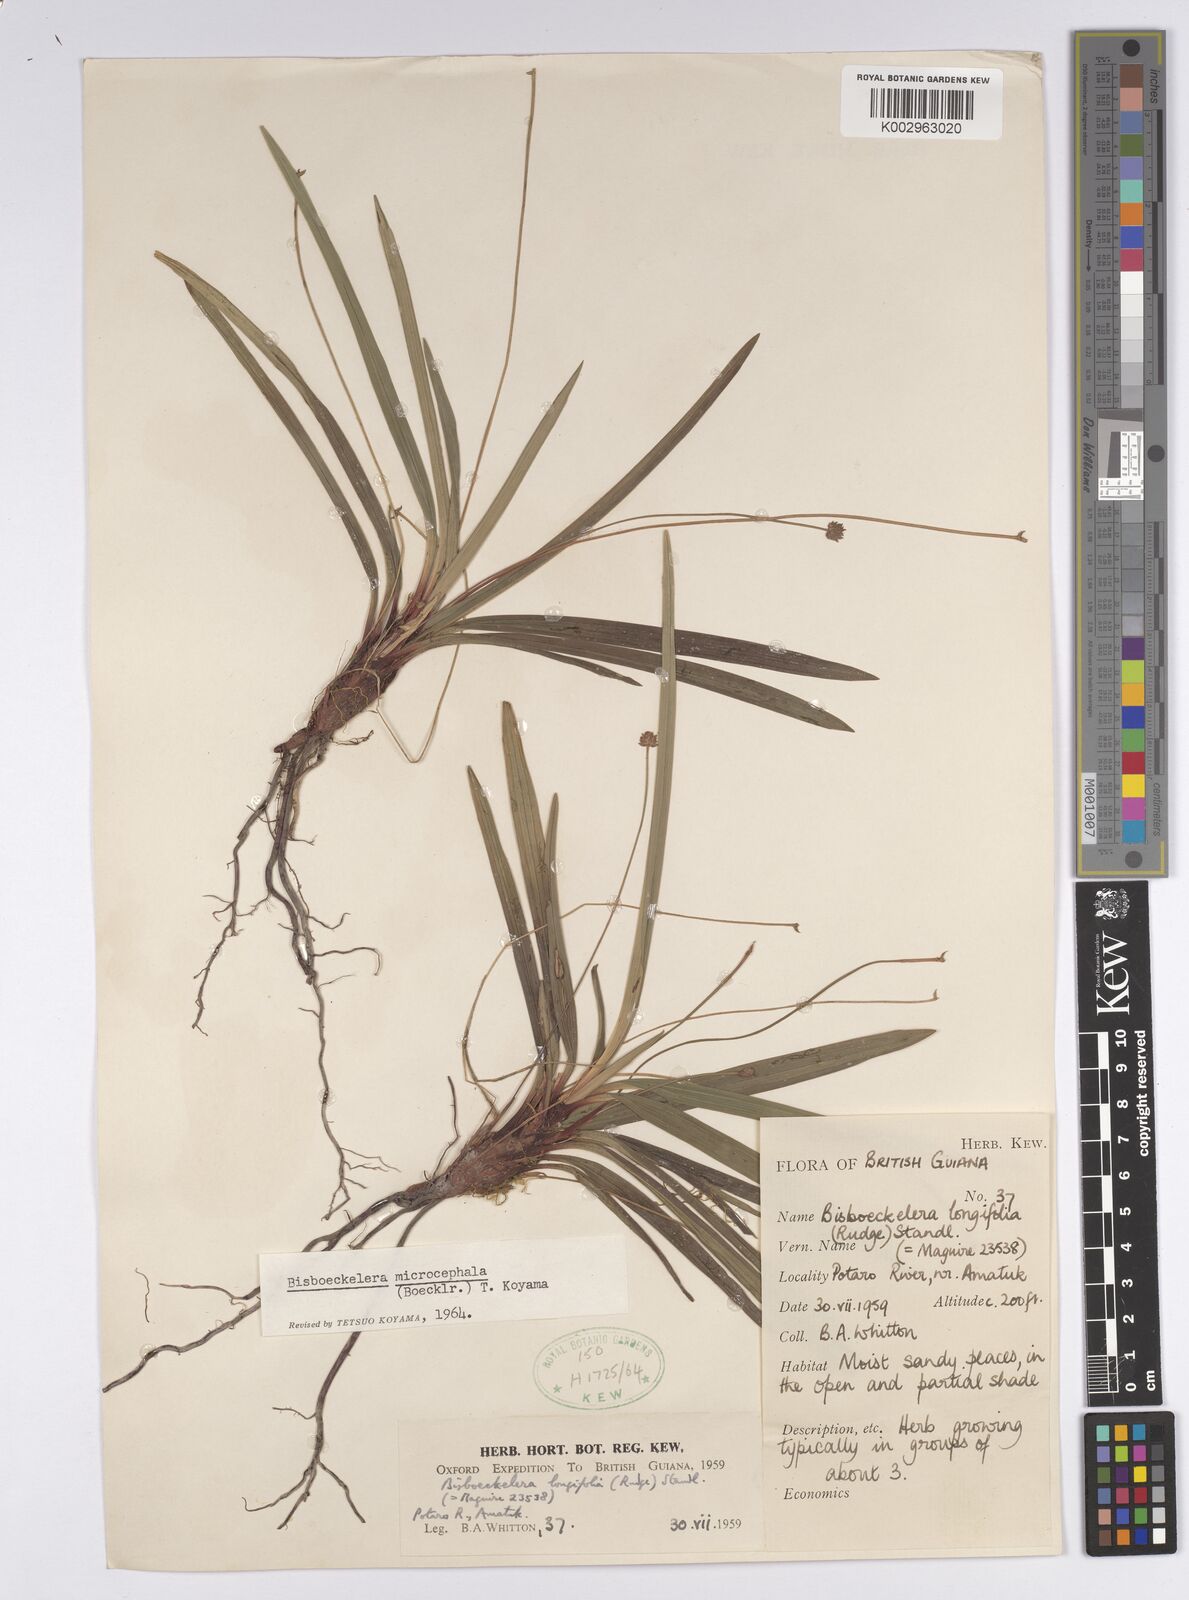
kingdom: Plantae
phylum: Tracheophyta
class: Liliopsida
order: Poales
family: Cyperaceae
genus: Bisboeckelera
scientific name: Bisboeckelera microcephala
